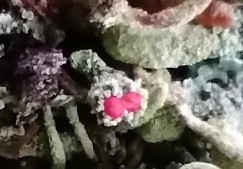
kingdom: Fungi
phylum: Ascomycota
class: Lecanoromycetes
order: Lecanorales
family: Cladoniaceae
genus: Cladonia
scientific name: Cladonia
